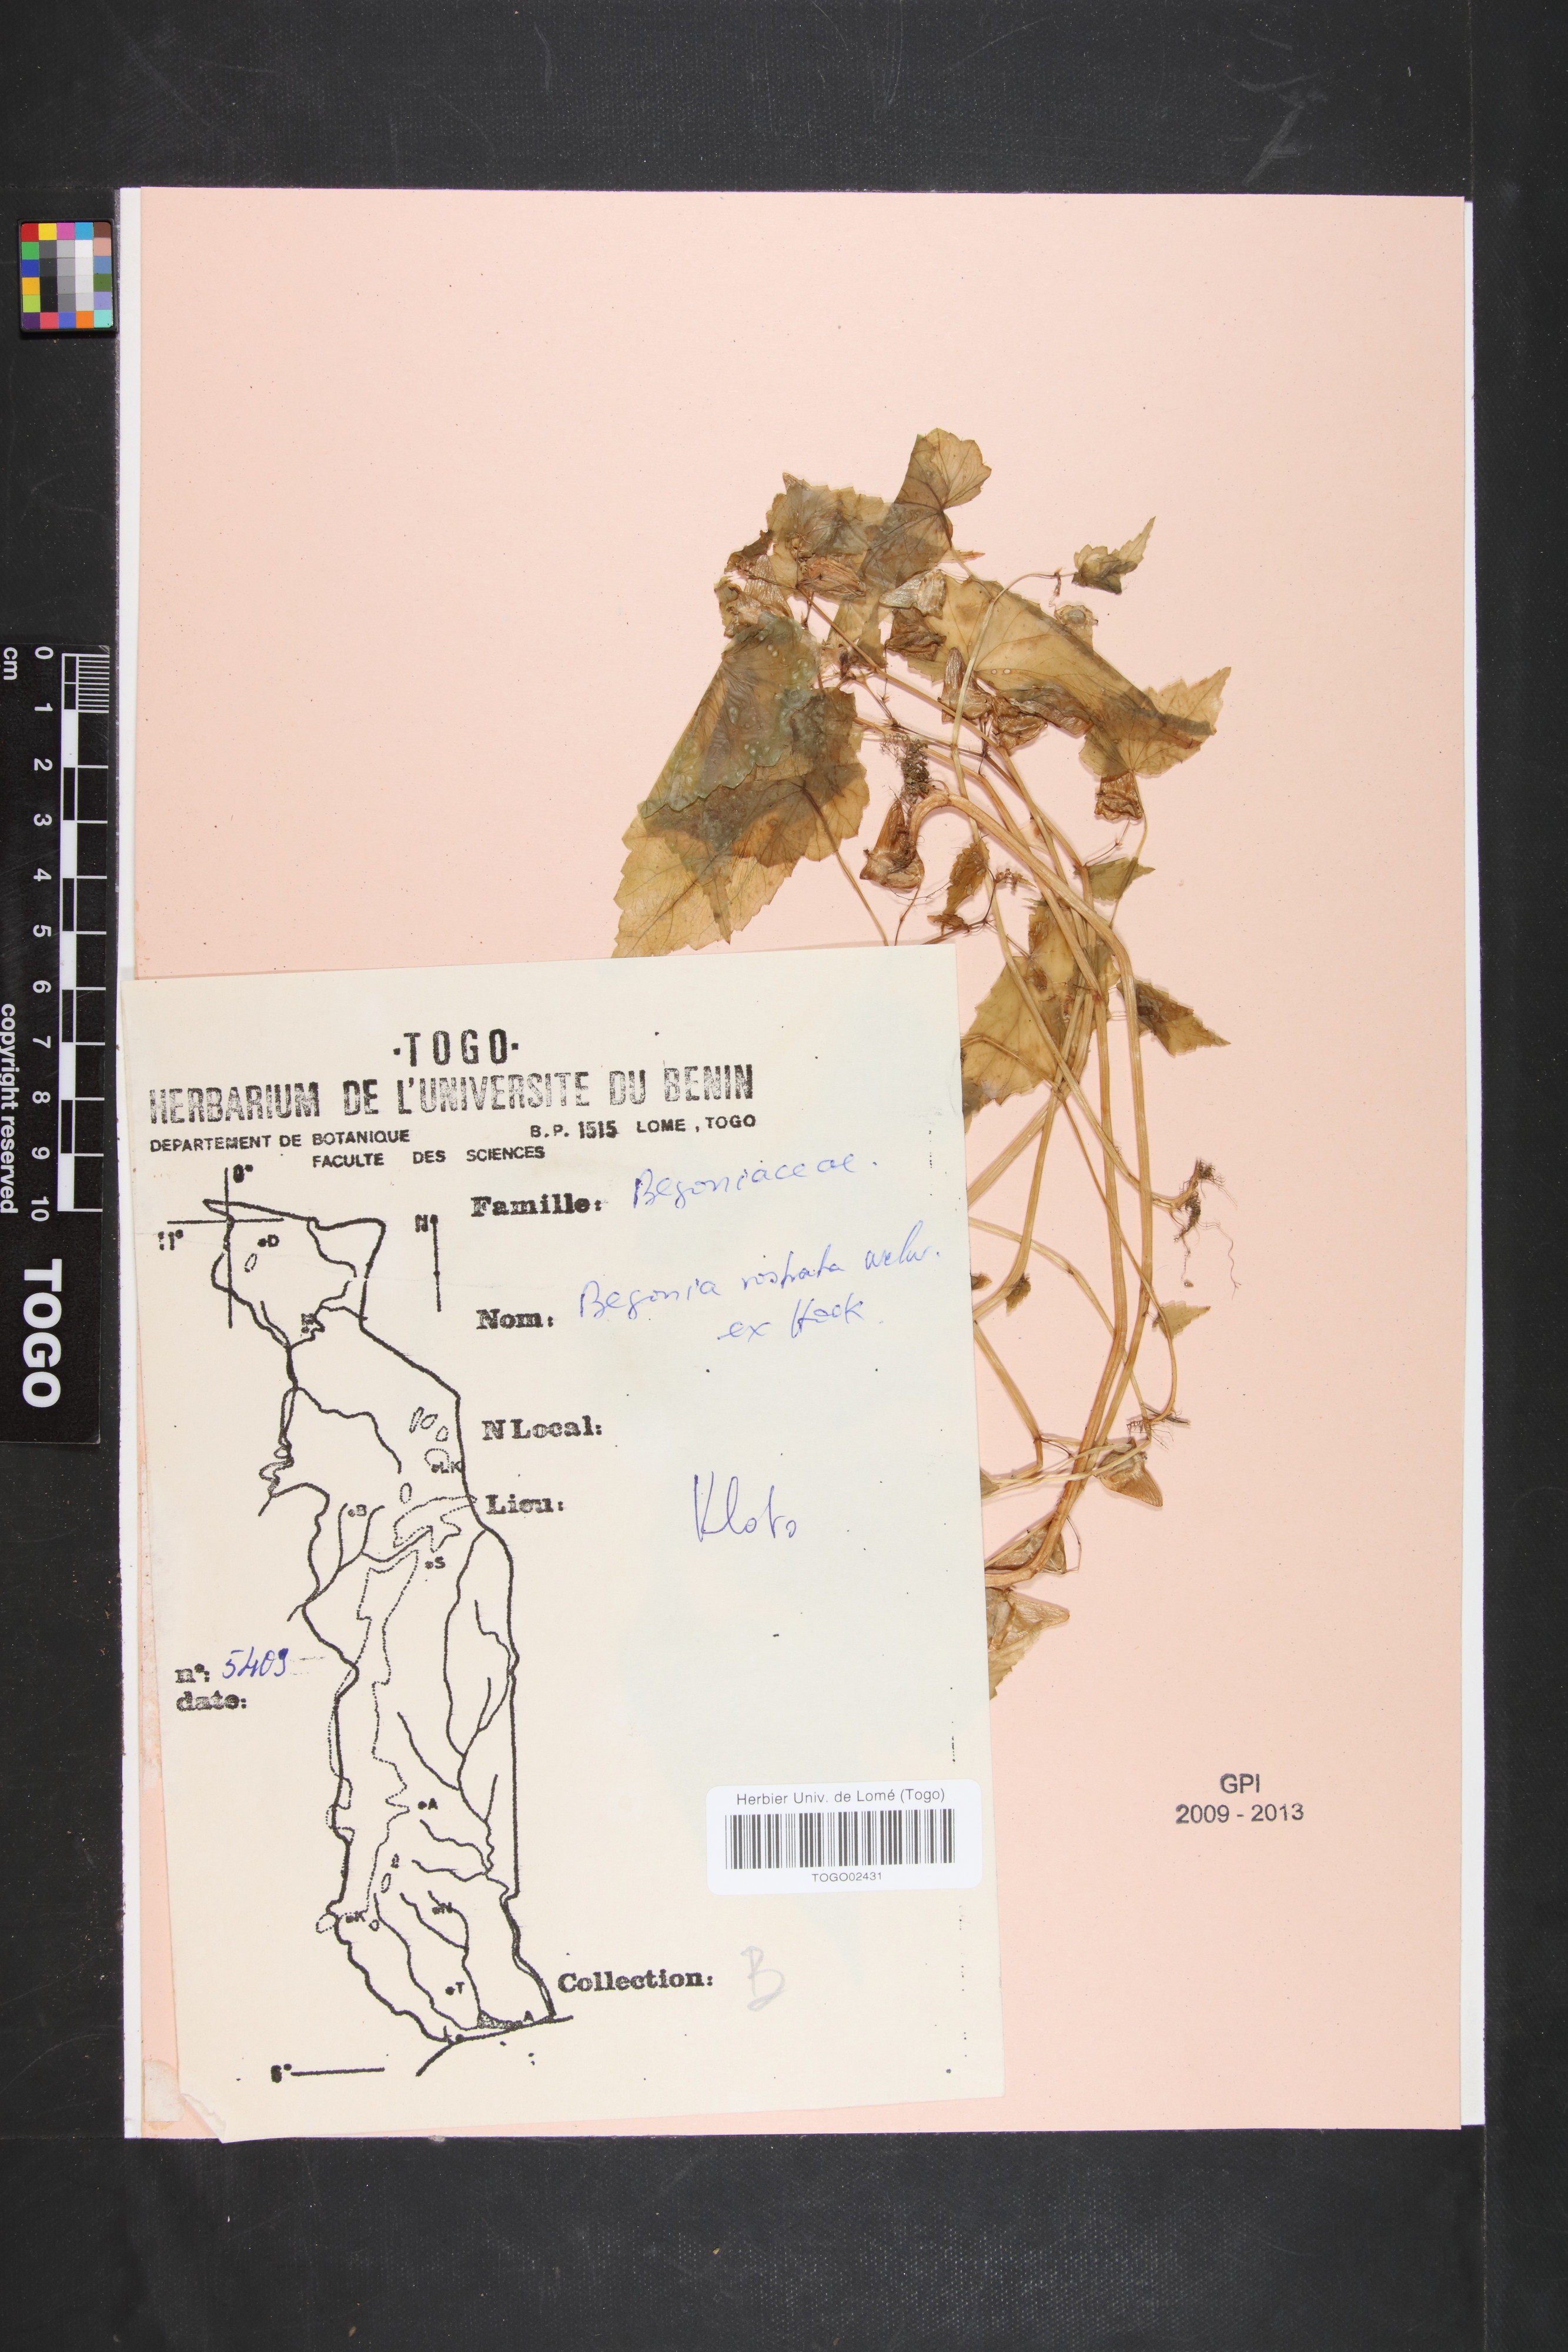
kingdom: Plantae
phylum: Tracheophyta
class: Magnoliopsida
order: Cucurbitales
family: Begoniaceae
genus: Begonia
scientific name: Begonia rostrata
